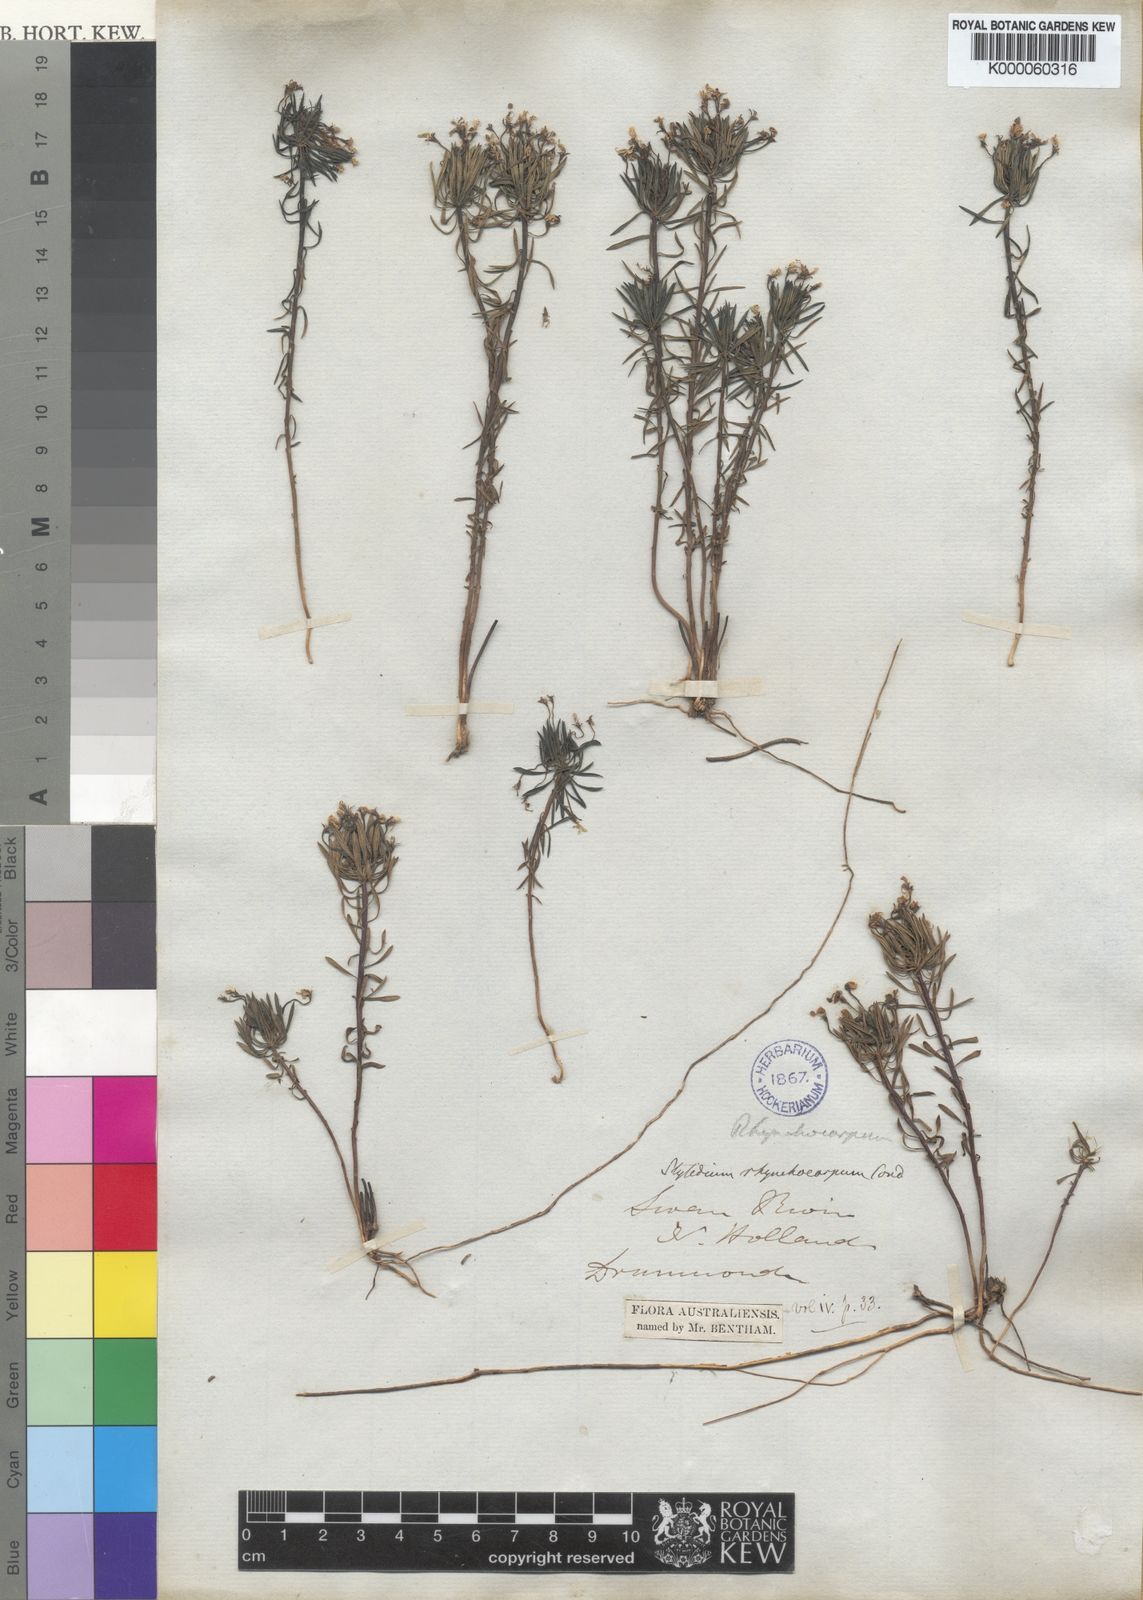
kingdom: Plantae
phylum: Tracheophyta
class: Magnoliopsida
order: Asterales
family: Stylidiaceae
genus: Stylidium
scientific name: Stylidium rhynchocarpum
